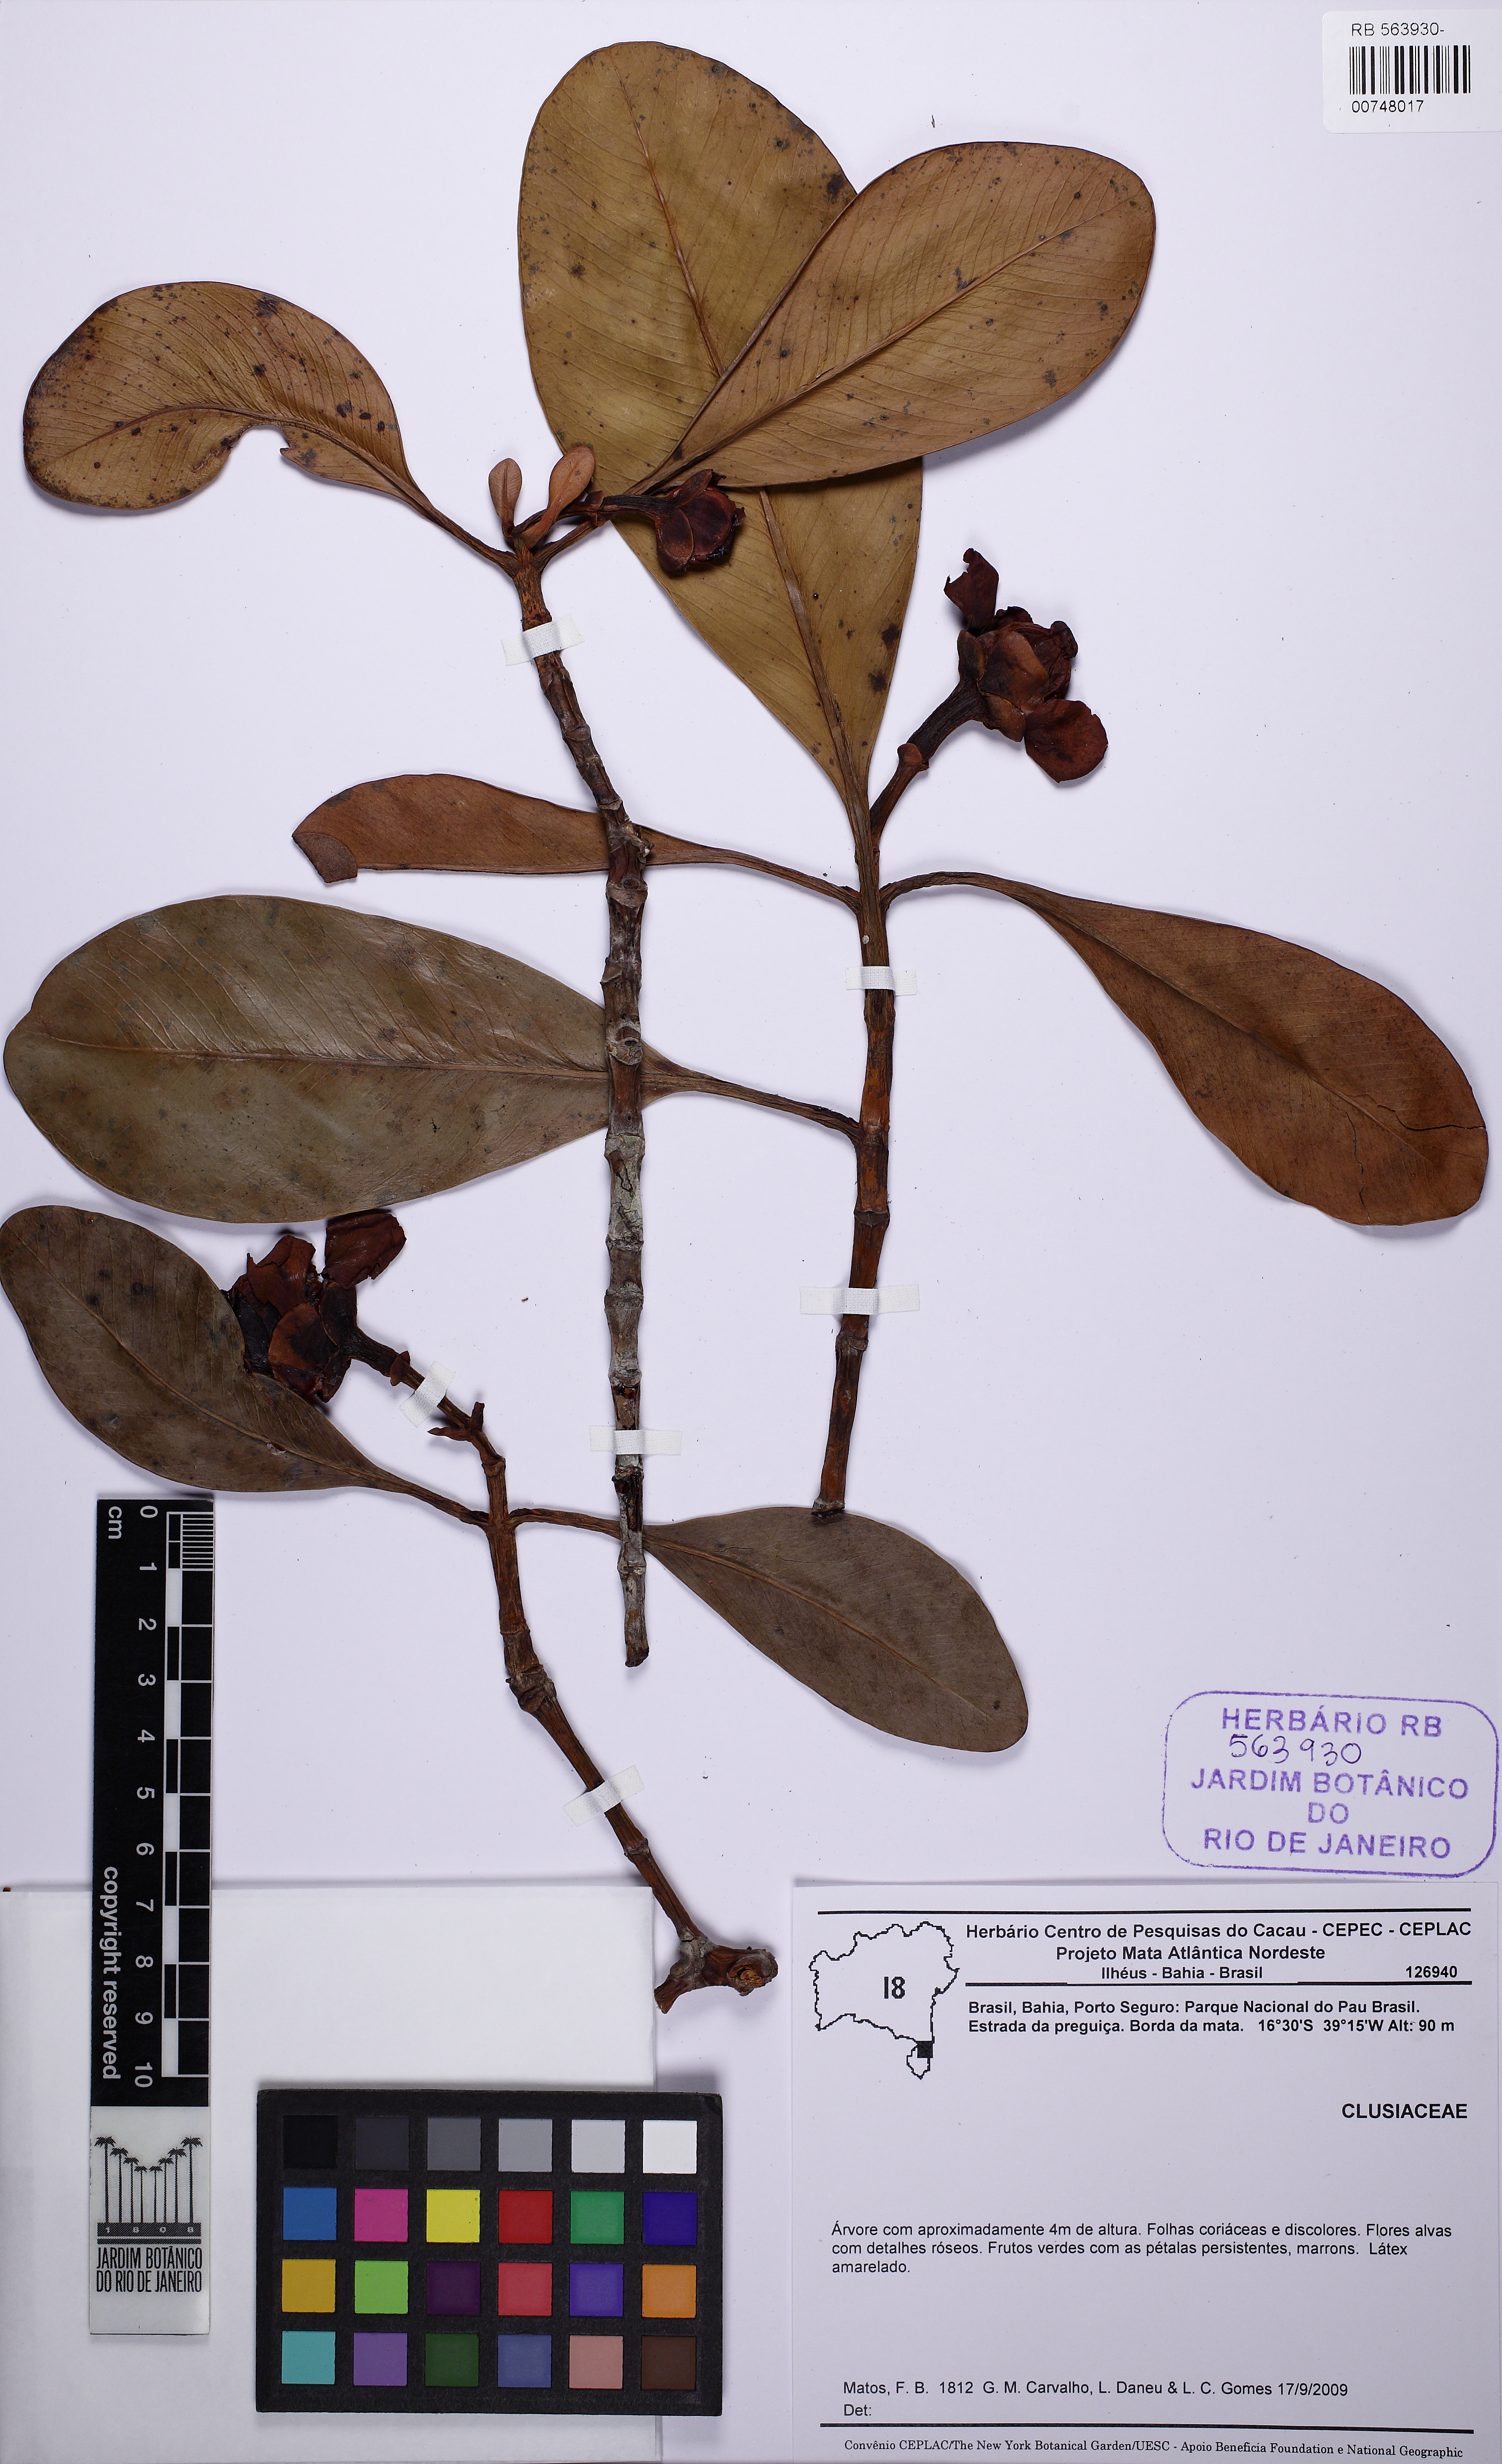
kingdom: Plantae
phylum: Tracheophyta
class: Magnoliopsida
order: Malpighiales
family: Clusiaceae
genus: Clusia
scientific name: Clusia nemorosa
